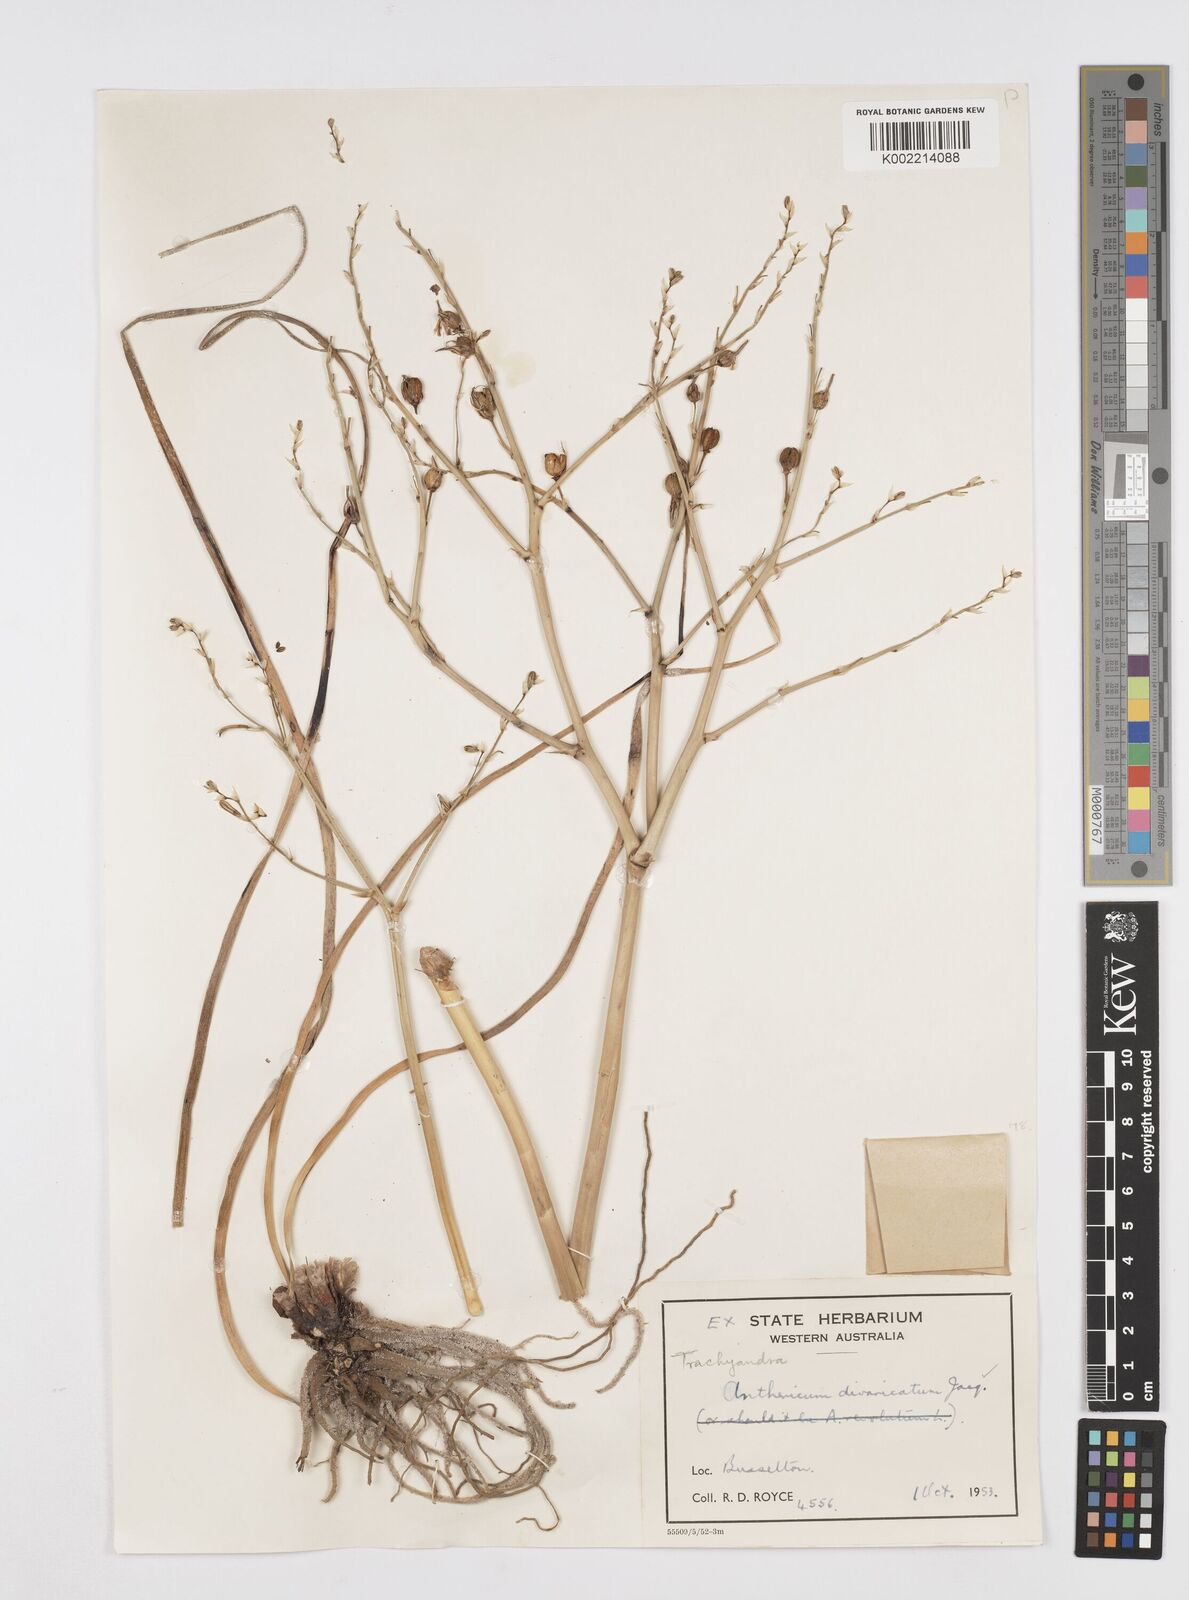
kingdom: Plantae
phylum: Tracheophyta
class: Liliopsida
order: Asparagales
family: Asphodelaceae
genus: Trachyandra
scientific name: Trachyandra divaricata
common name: Dune onionweed
